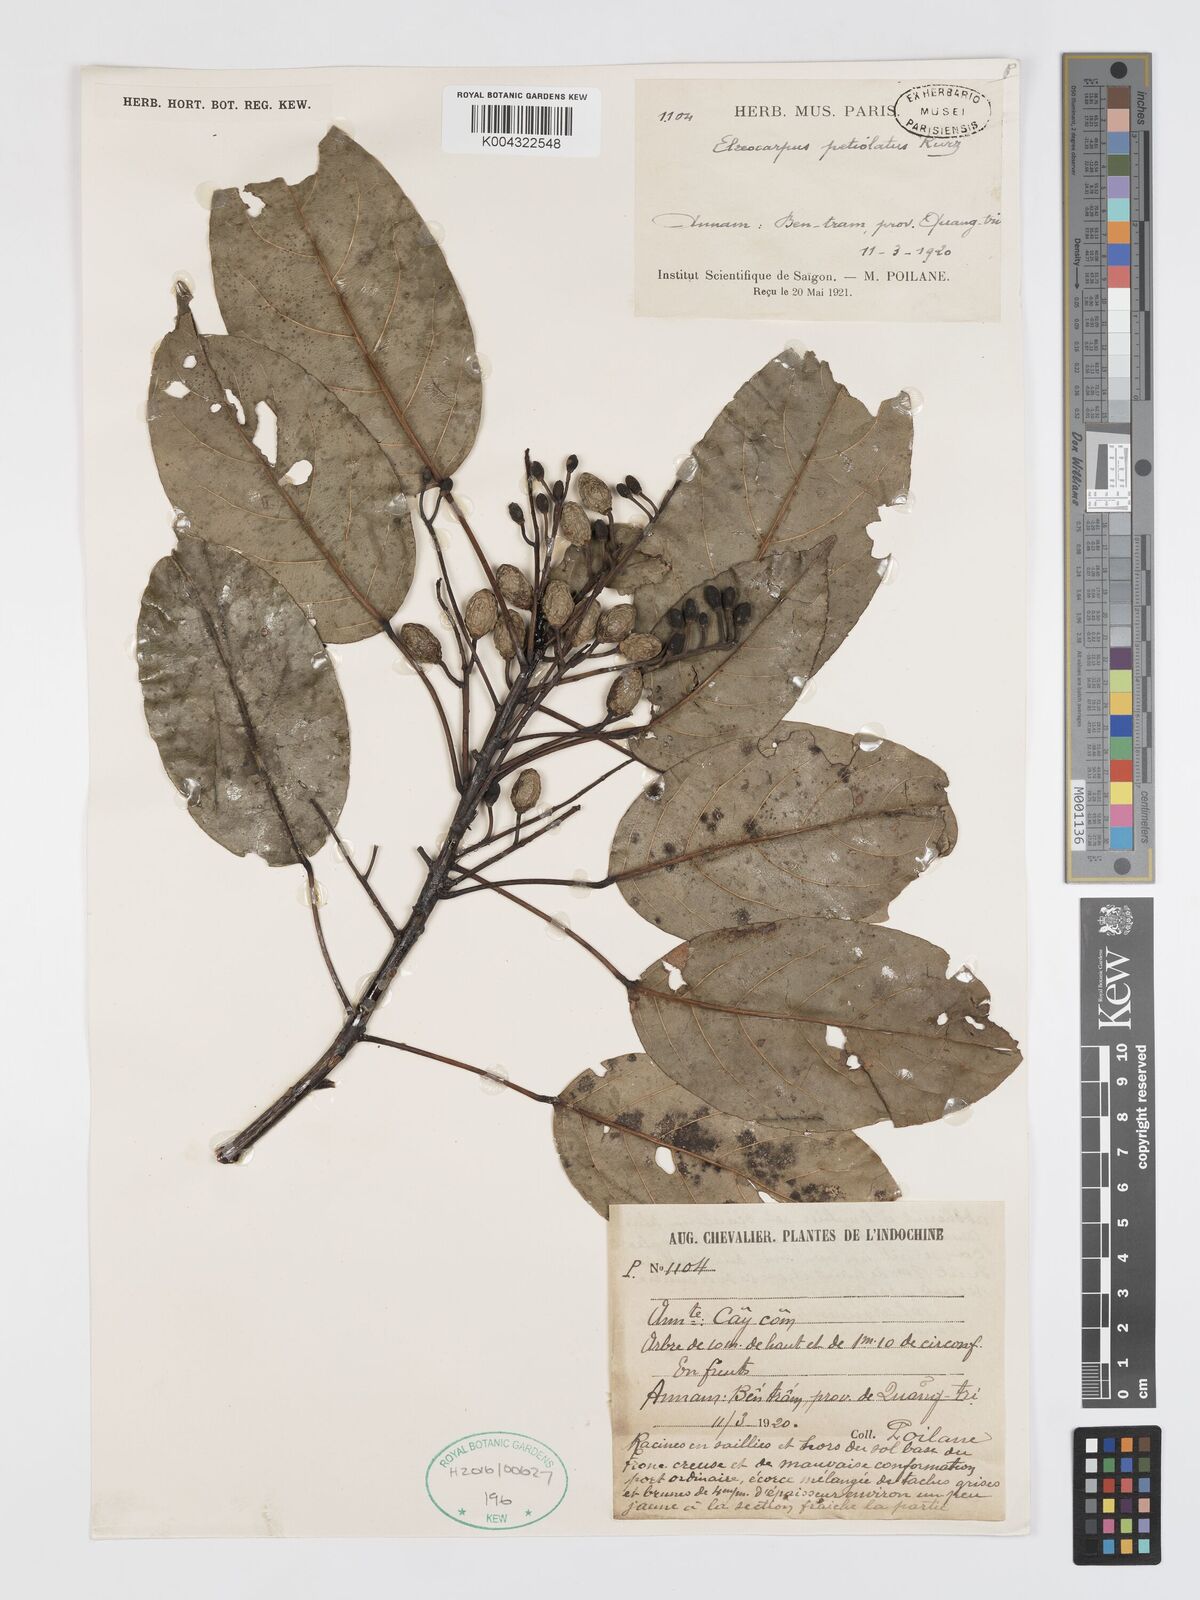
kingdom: Plantae
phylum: Tracheophyta
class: Magnoliopsida
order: Oxalidales
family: Elaeocarpaceae
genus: Elaeocarpus
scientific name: Elaeocarpus petiolatus
